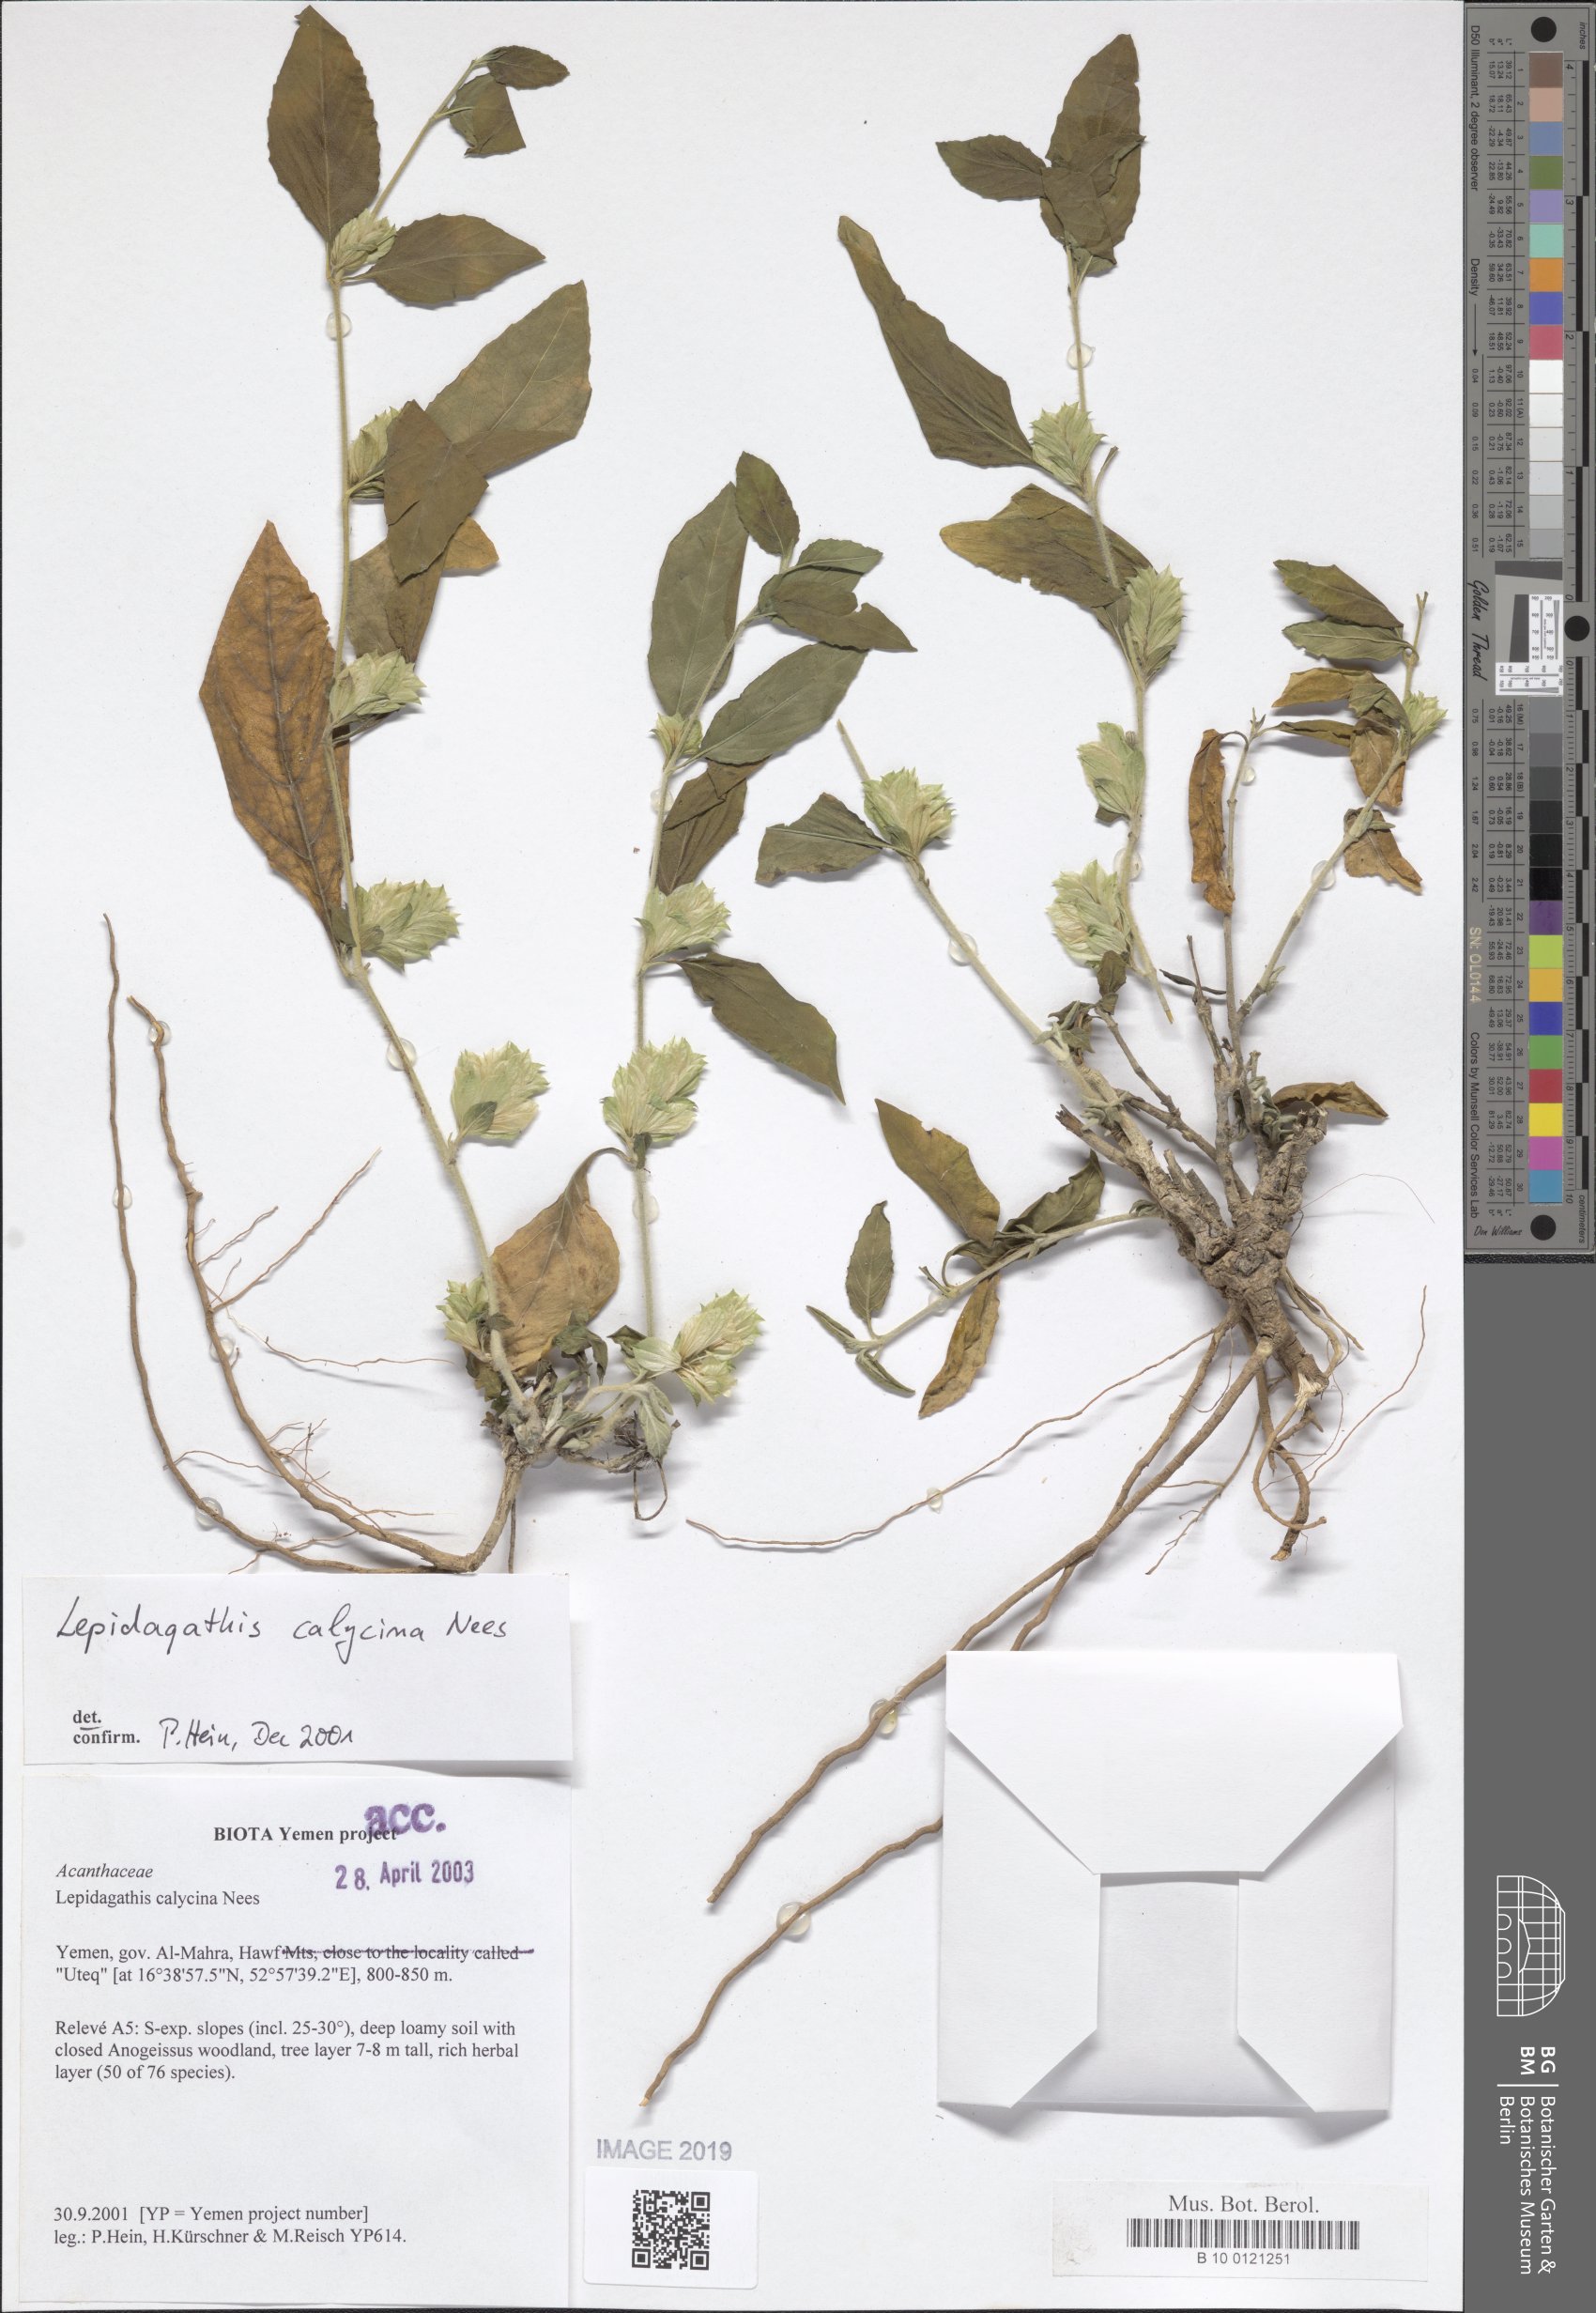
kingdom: Plantae
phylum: Tracheophyta
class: Magnoliopsida
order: Lamiales
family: Acanthaceae
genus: Lepidagathis
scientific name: Lepidagathis calycina
